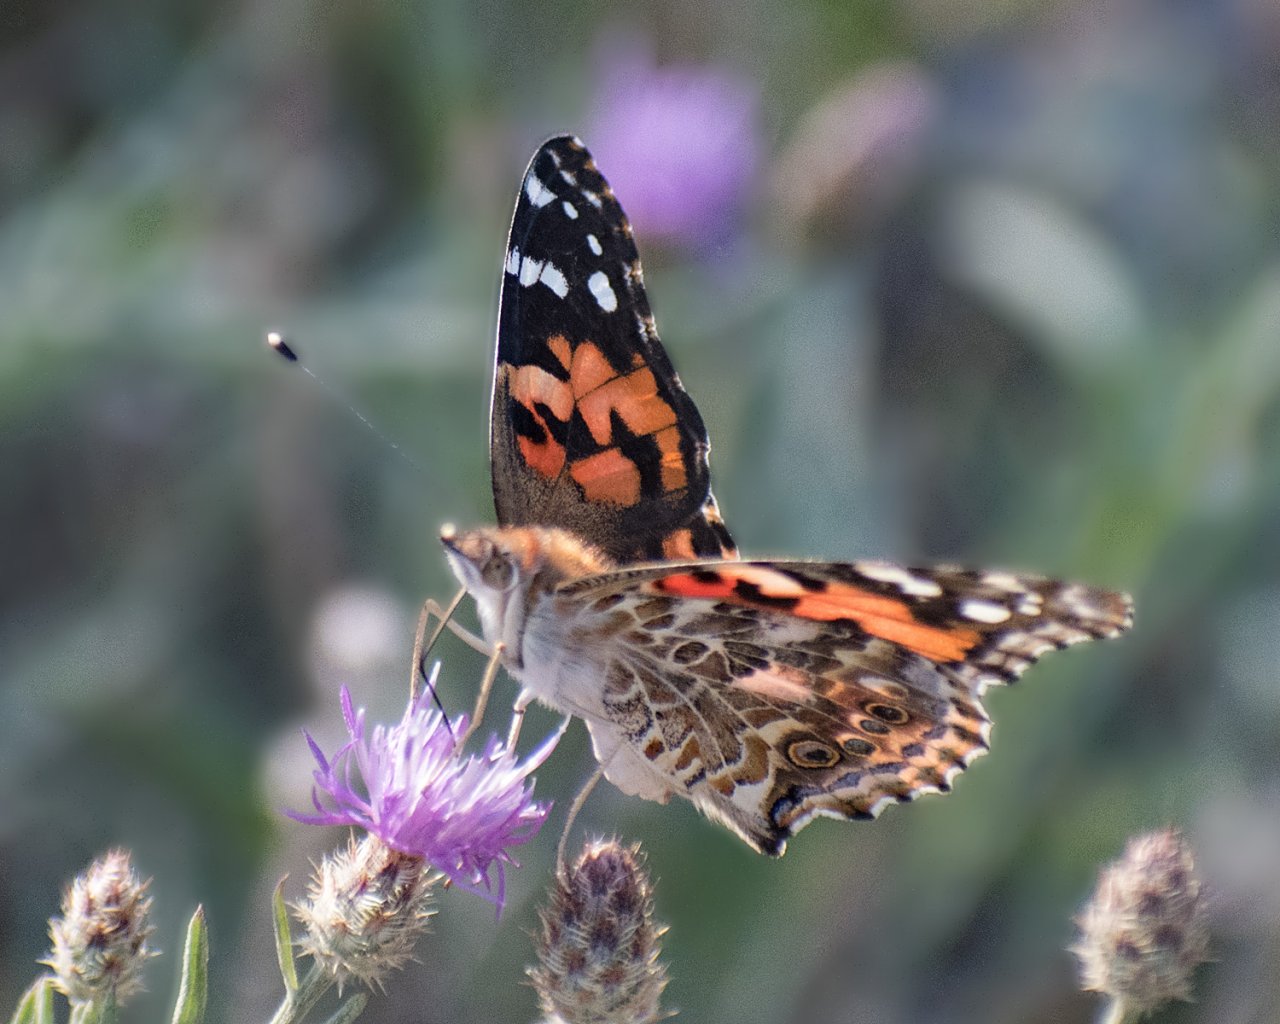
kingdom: Animalia
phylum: Arthropoda
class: Insecta
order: Lepidoptera
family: Nymphalidae
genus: Vanessa
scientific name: Vanessa cardui
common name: Painted Lady
